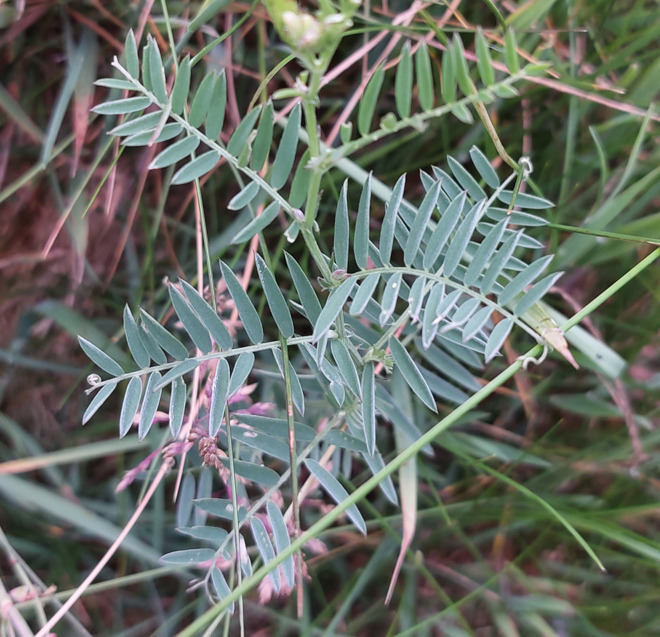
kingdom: Plantae
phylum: Tracheophyta
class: Magnoliopsida
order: Fabales
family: Fabaceae
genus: Vicia
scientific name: Vicia cracca
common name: Muse-vikke
